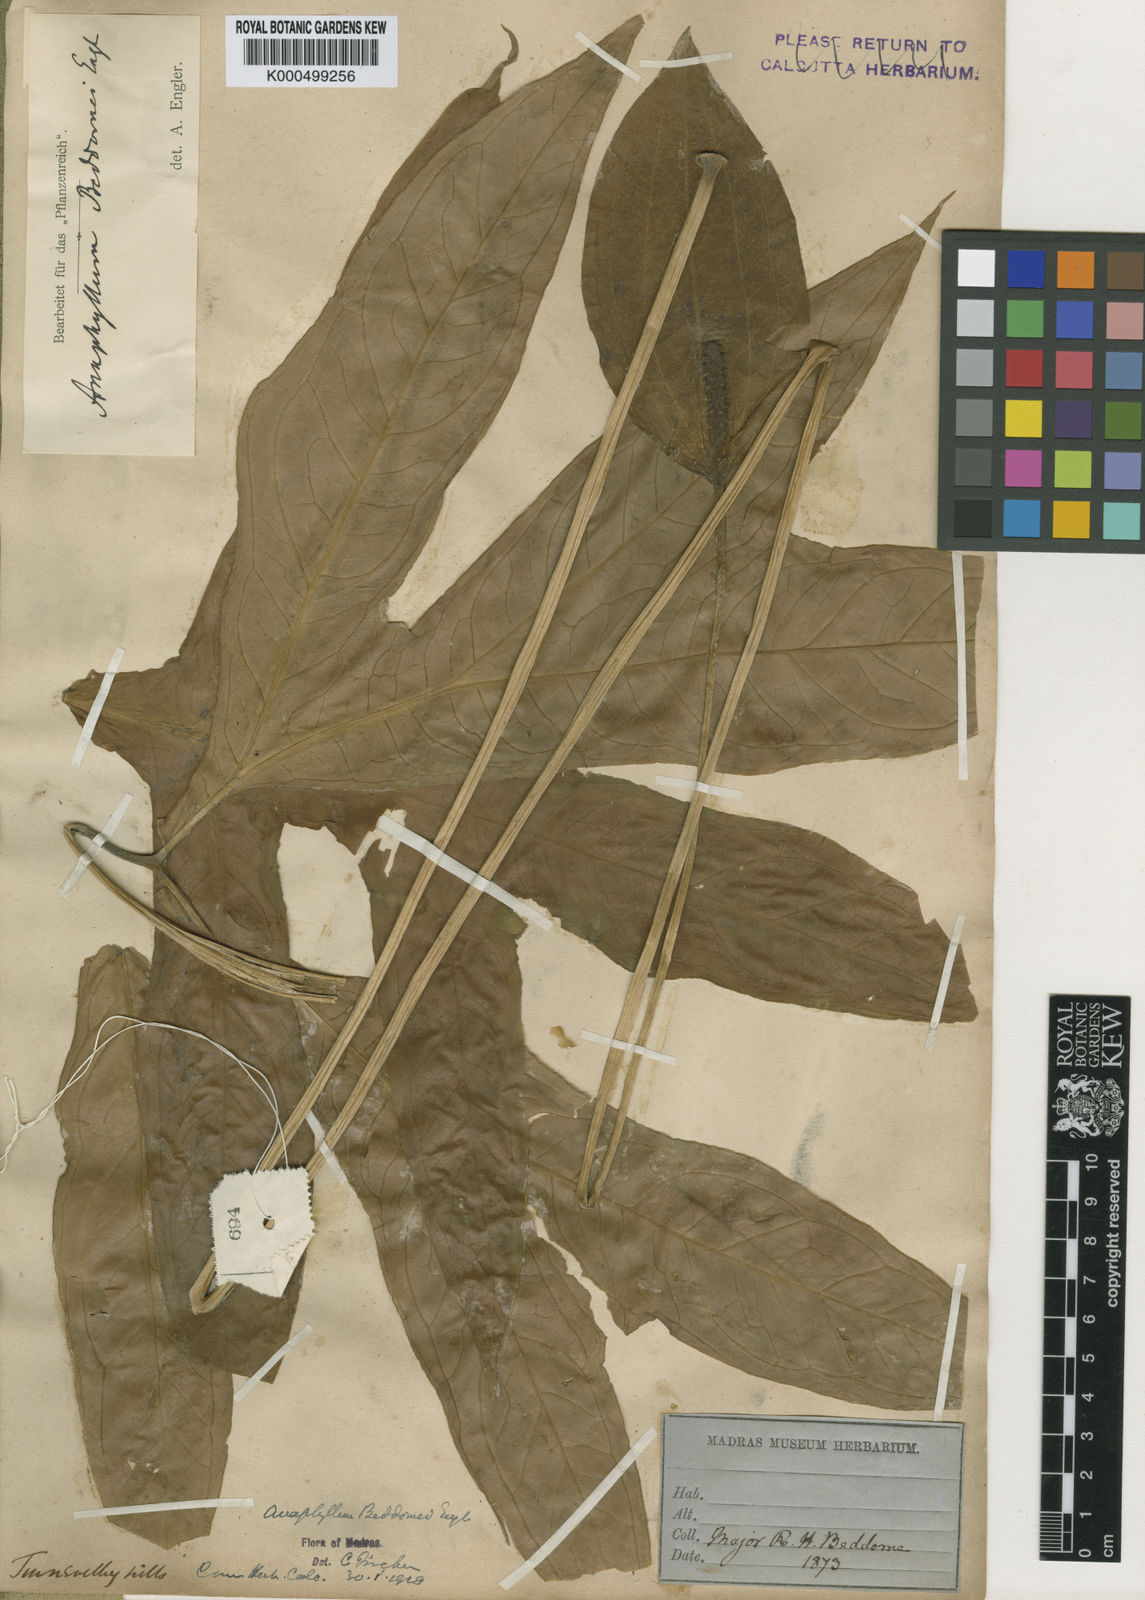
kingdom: Plantae
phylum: Tracheophyta
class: Liliopsida
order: Alismatales
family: Araceae
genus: Anaphyllum
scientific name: Anaphyllum beddomei
